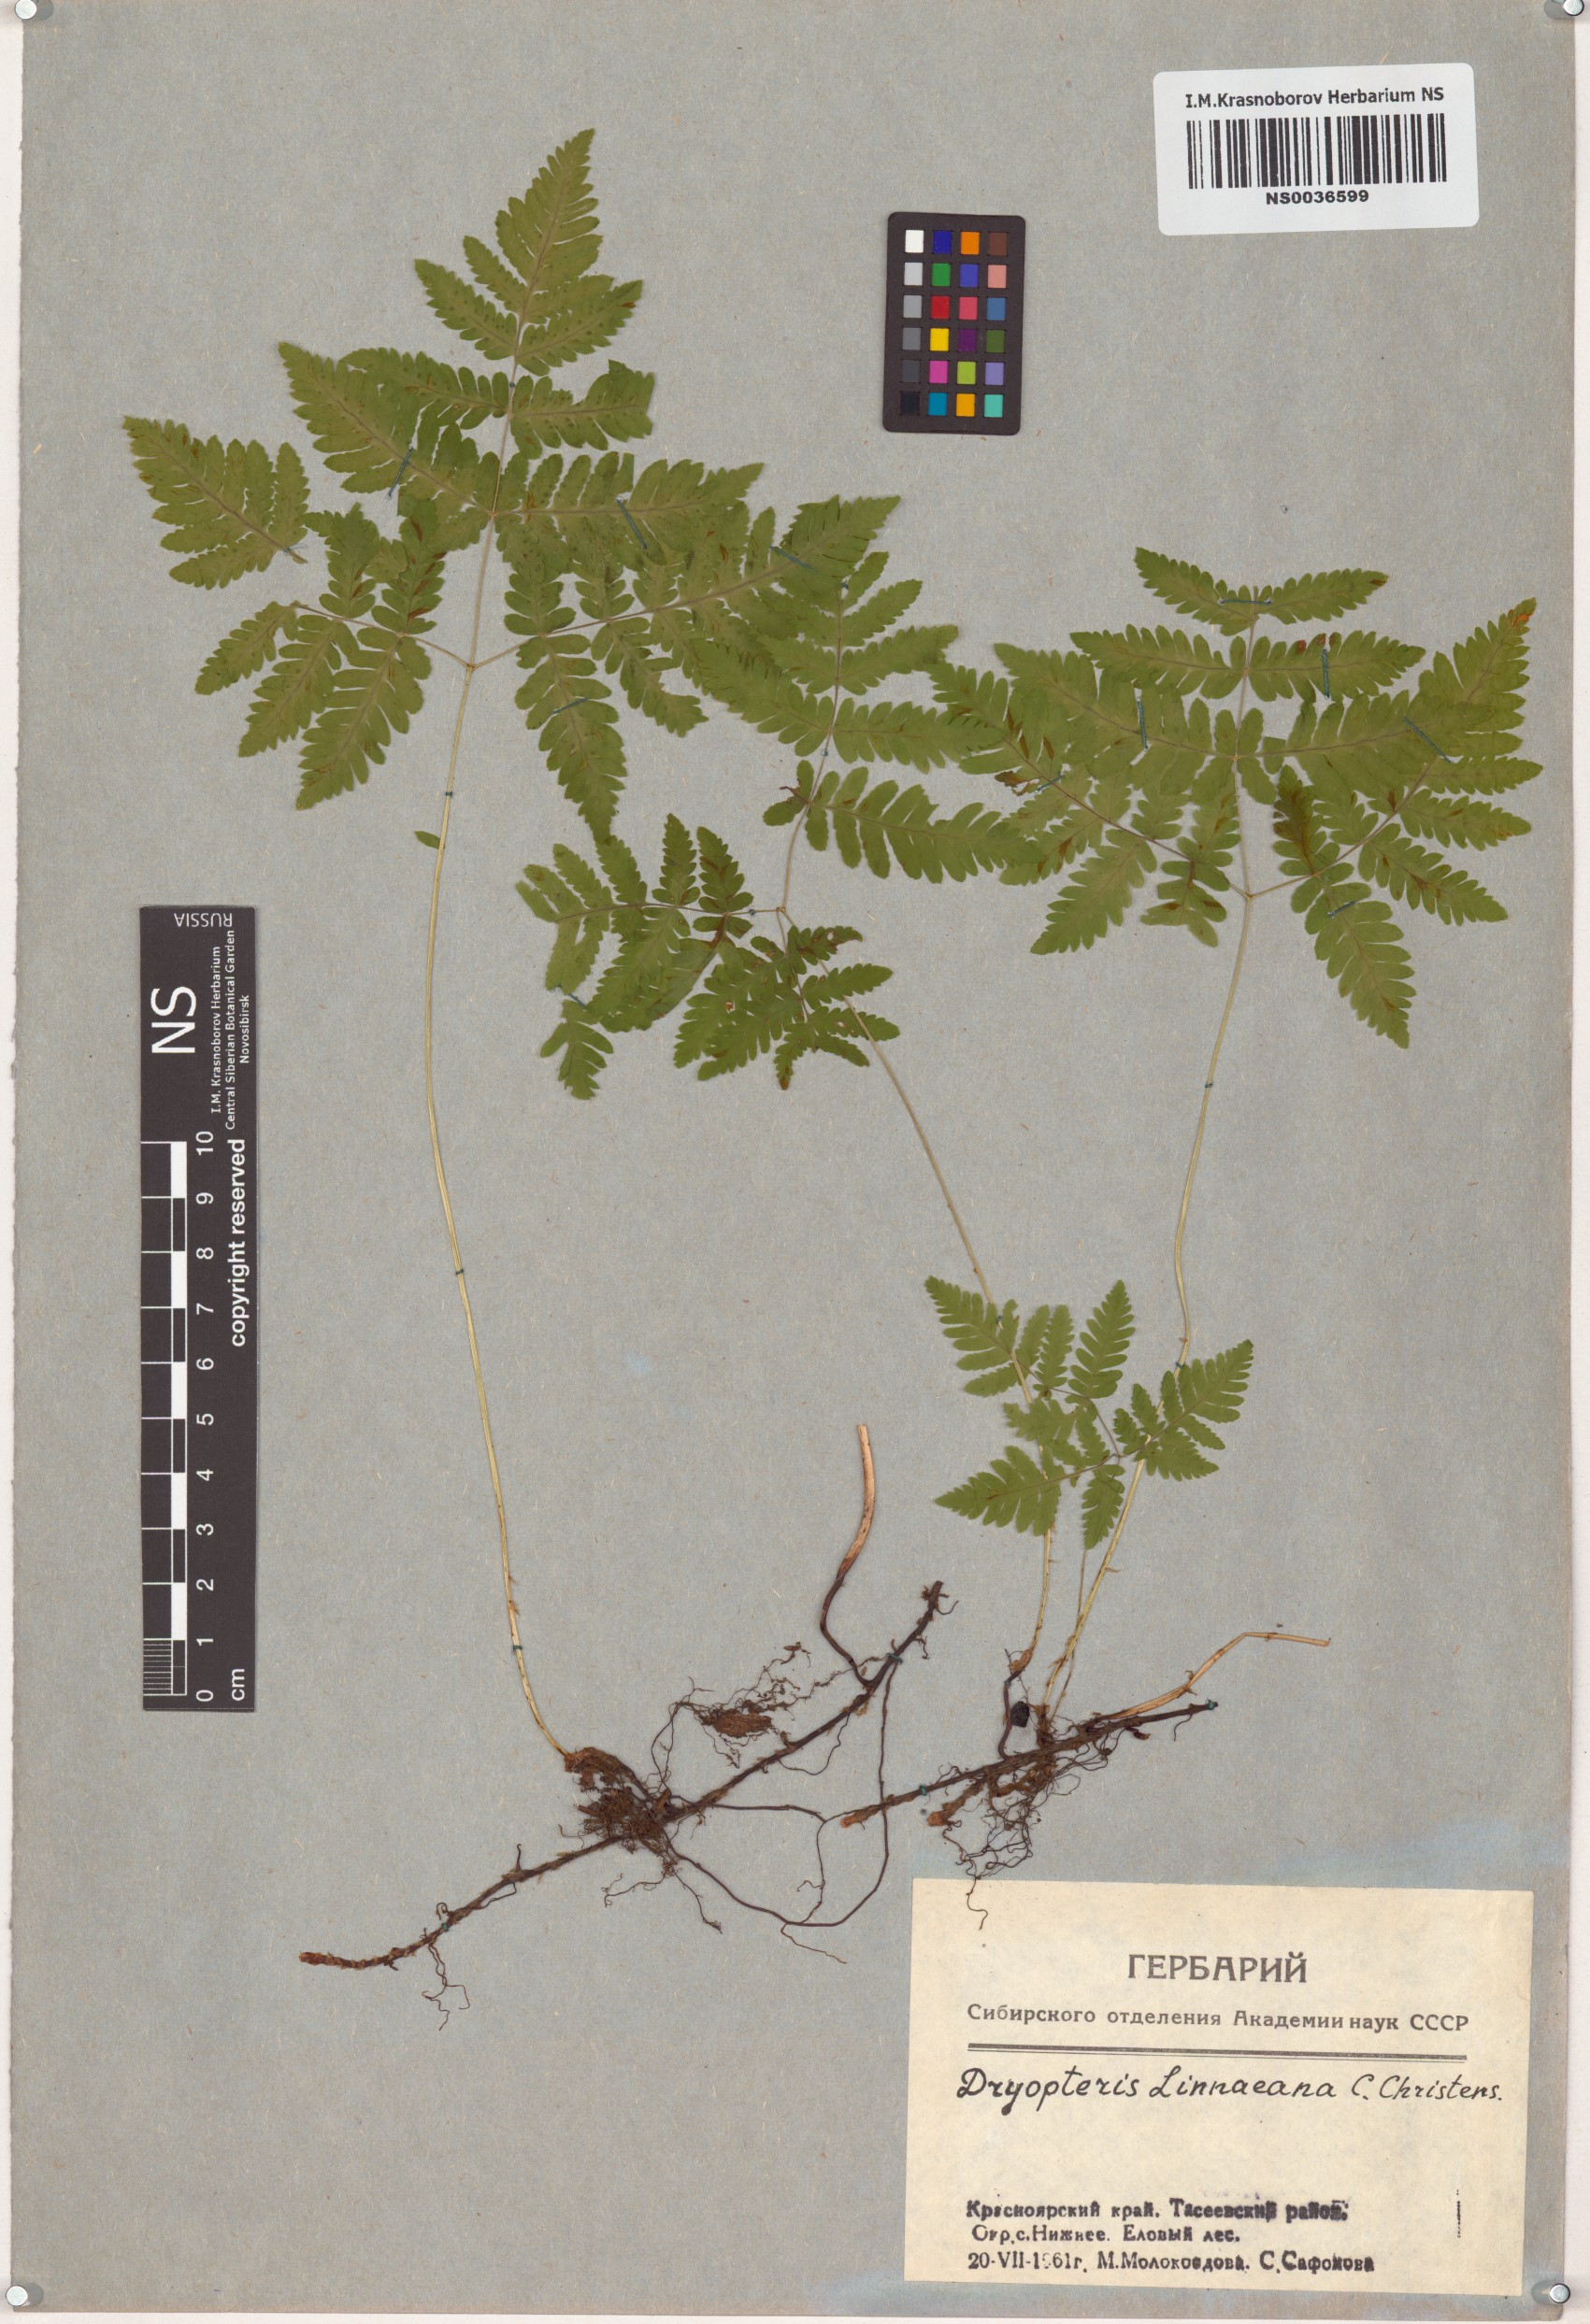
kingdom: Plantae
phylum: Tracheophyta
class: Polypodiopsida
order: Polypodiales
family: Cystopteridaceae
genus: Gymnocarpium
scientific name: Gymnocarpium dryopteris
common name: Oak fern
